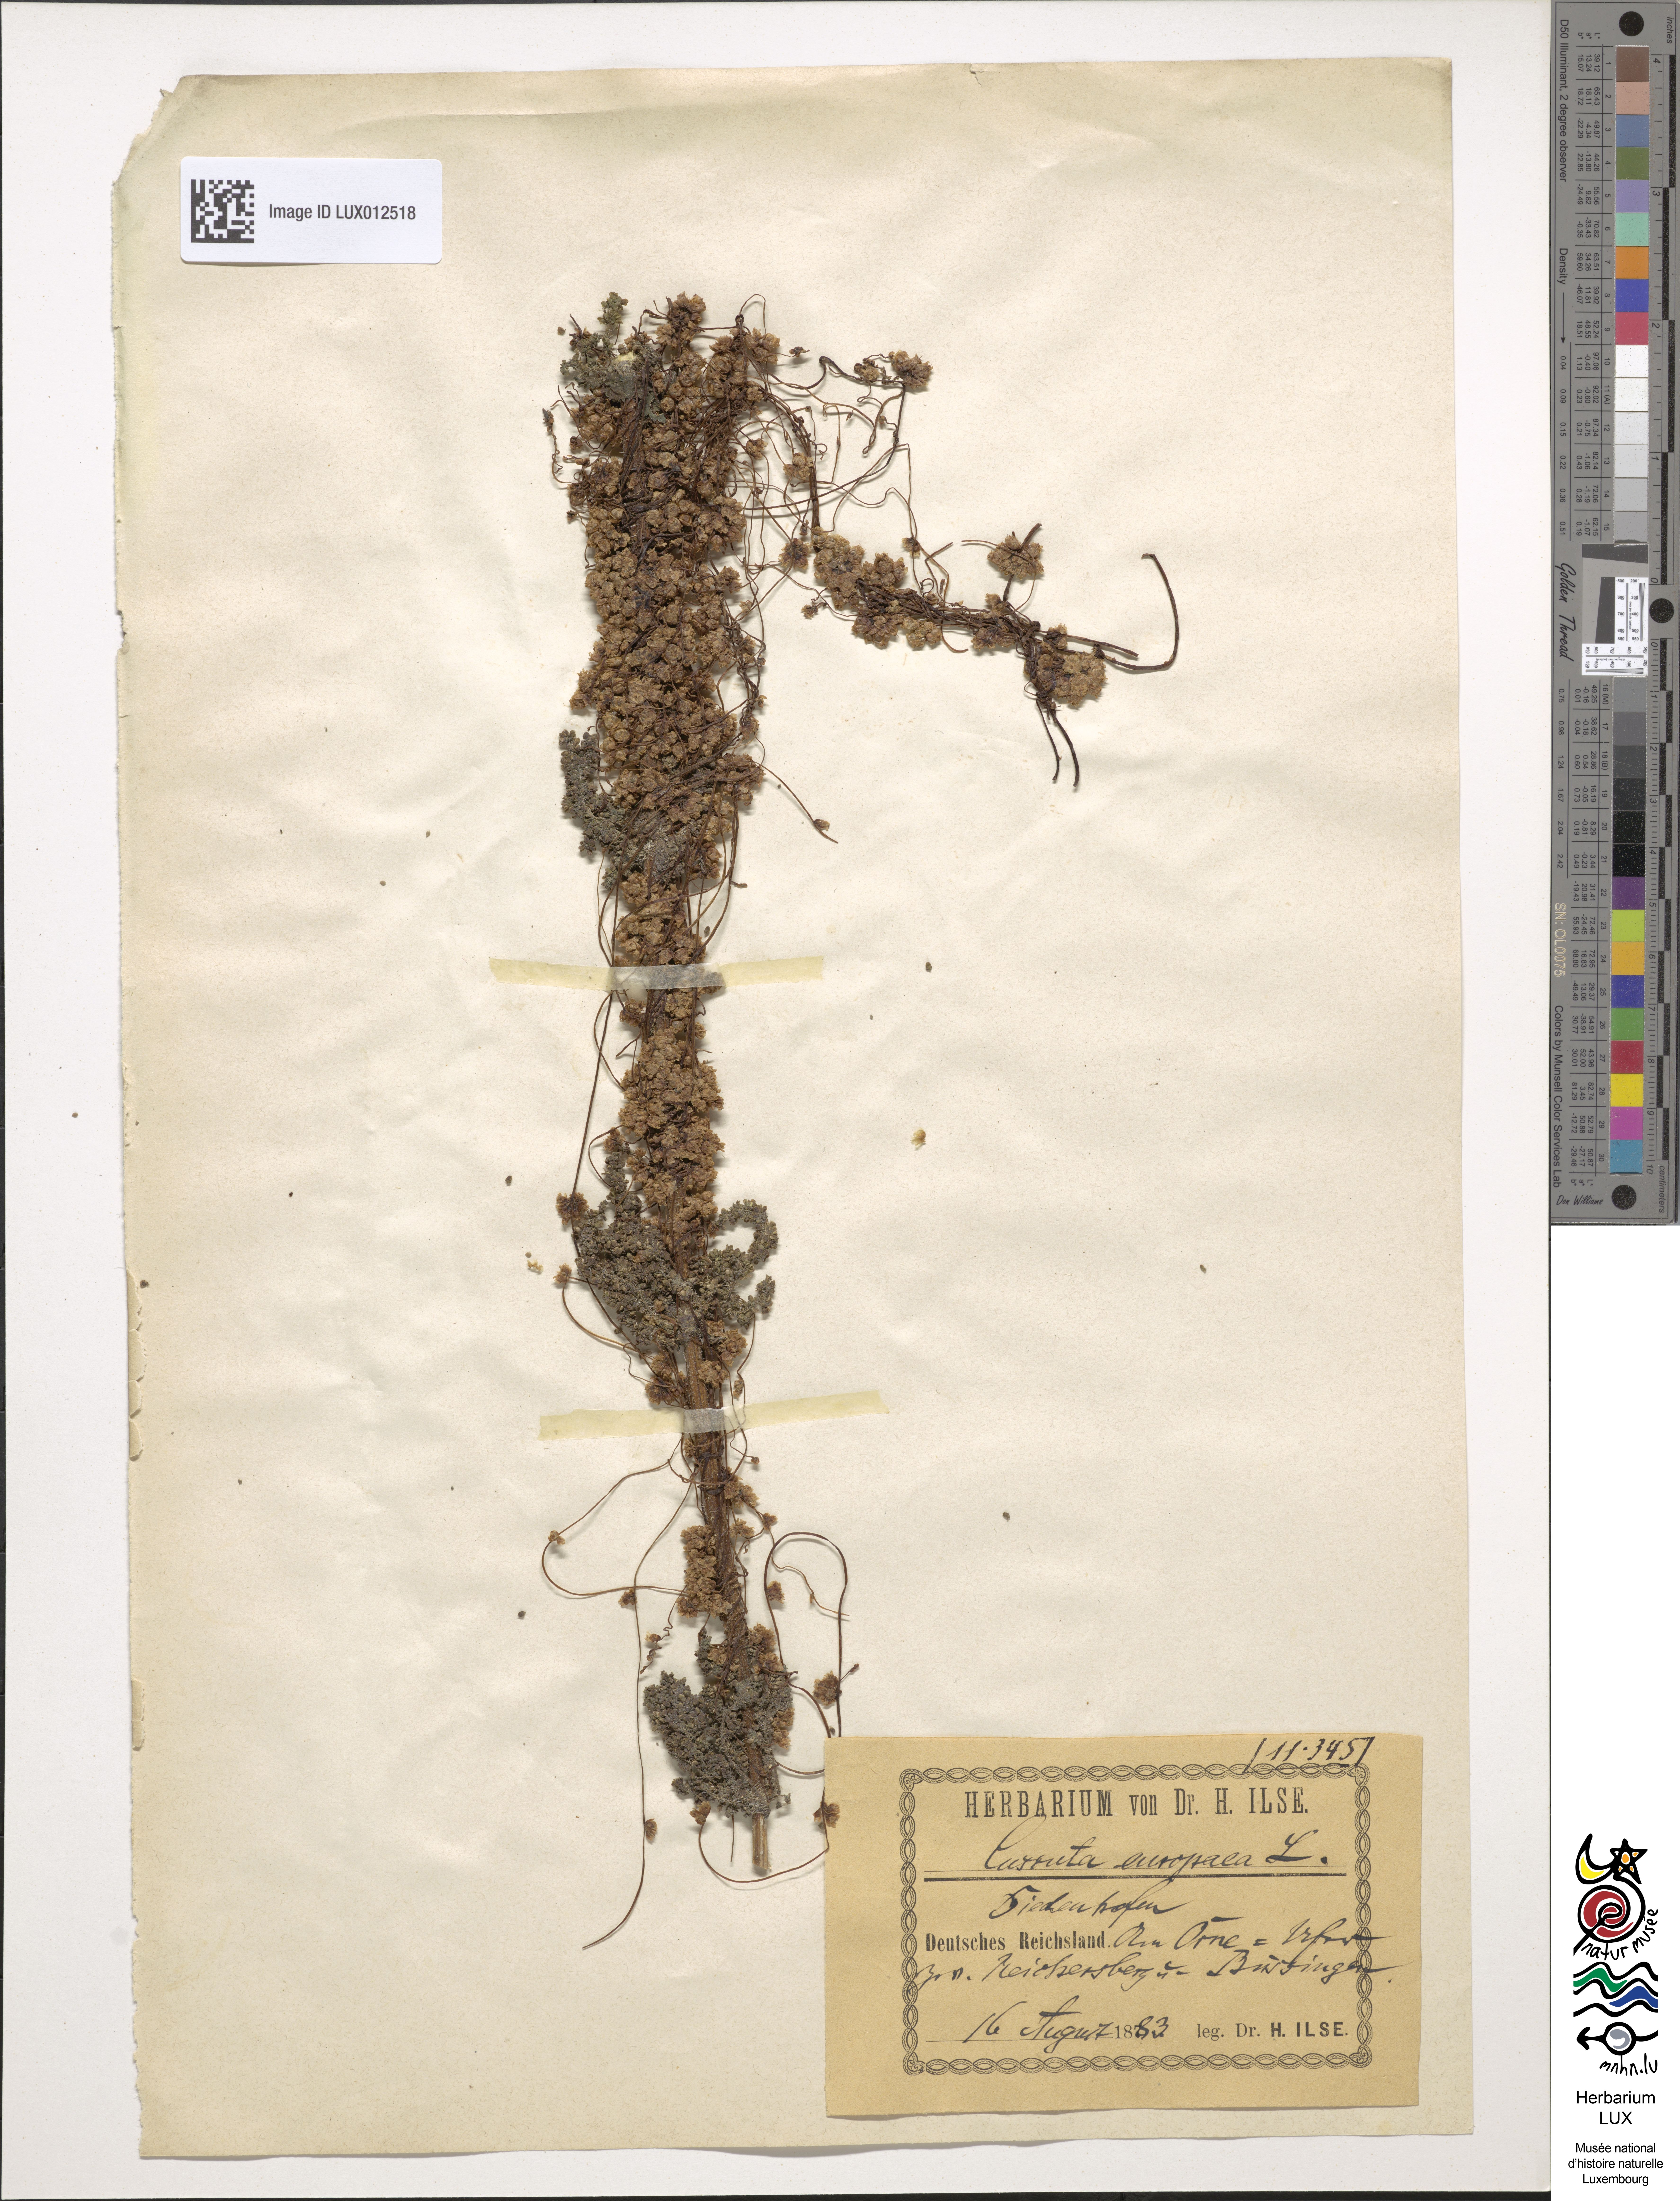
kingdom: Plantae
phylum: Tracheophyta
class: Magnoliopsida
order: Solanales
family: Convolvulaceae
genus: Cuscuta
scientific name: Cuscuta europaea
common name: Greater dodder
